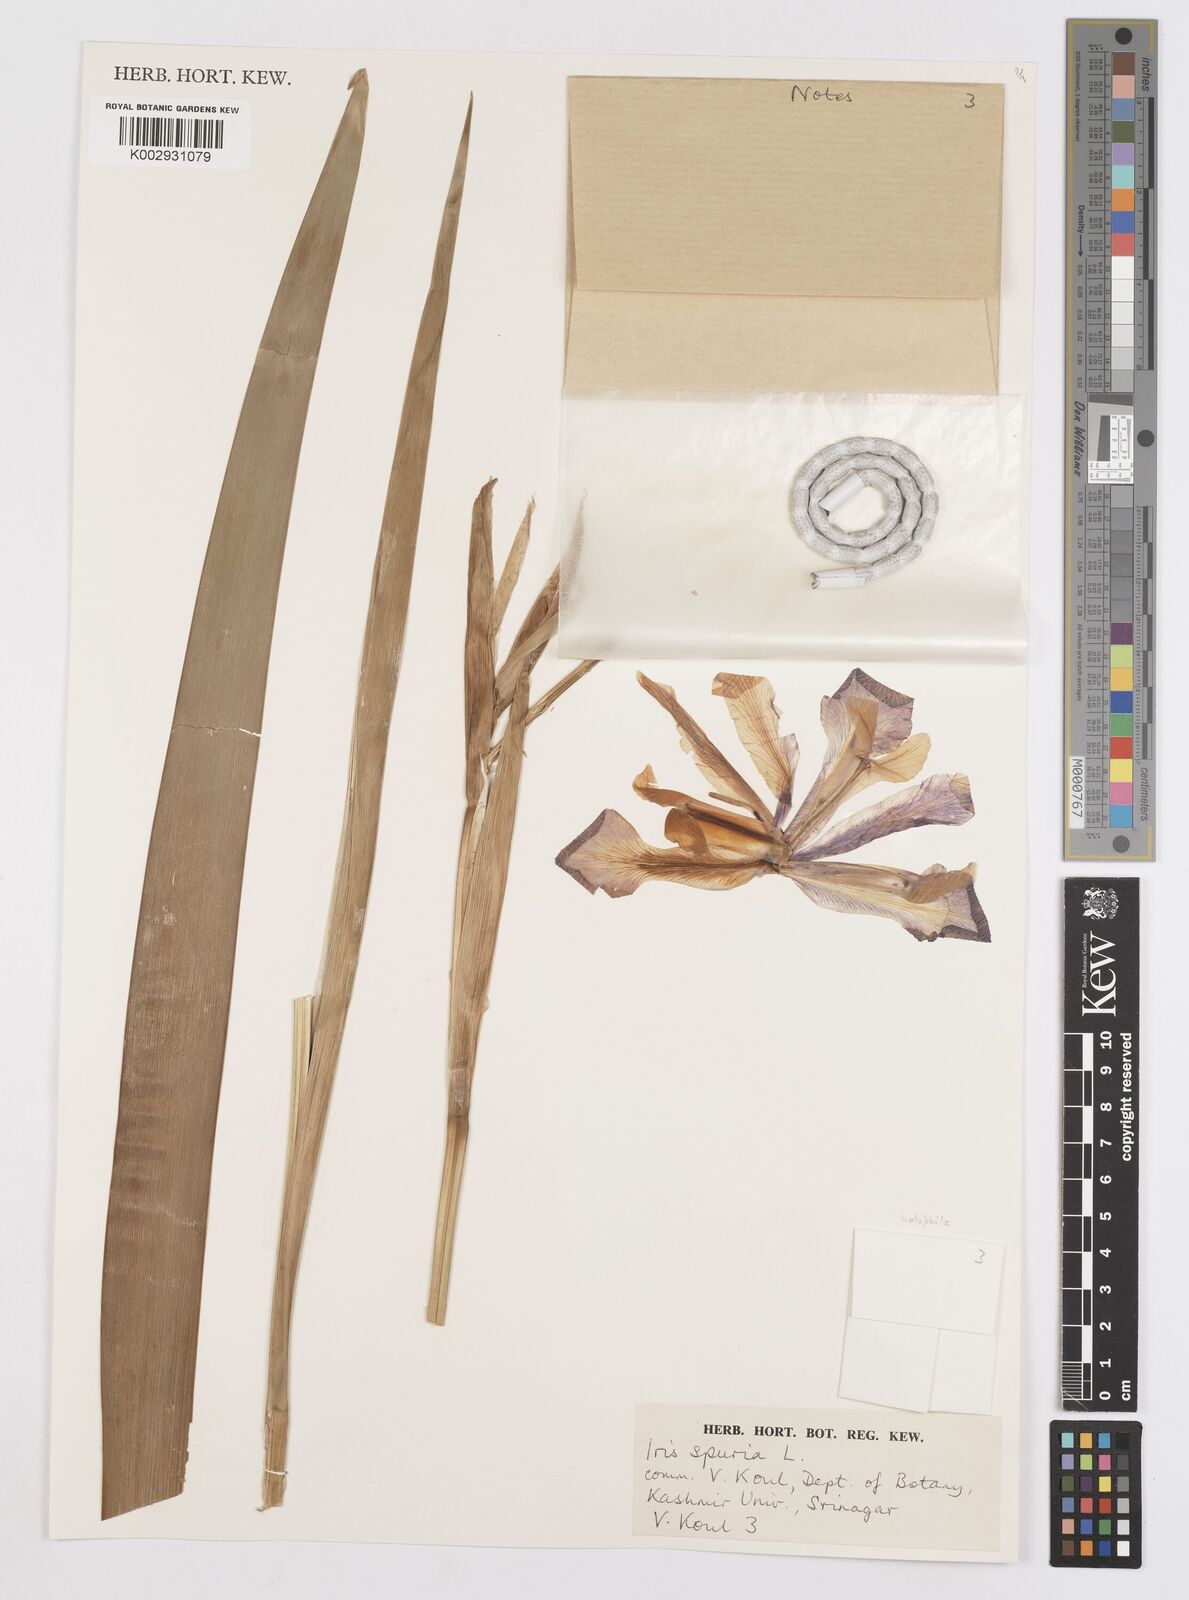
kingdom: Plantae
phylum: Tracheophyta
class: Liliopsida
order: Asparagales
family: Iridaceae
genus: Iris
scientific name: Iris spuria
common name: Blue iris
